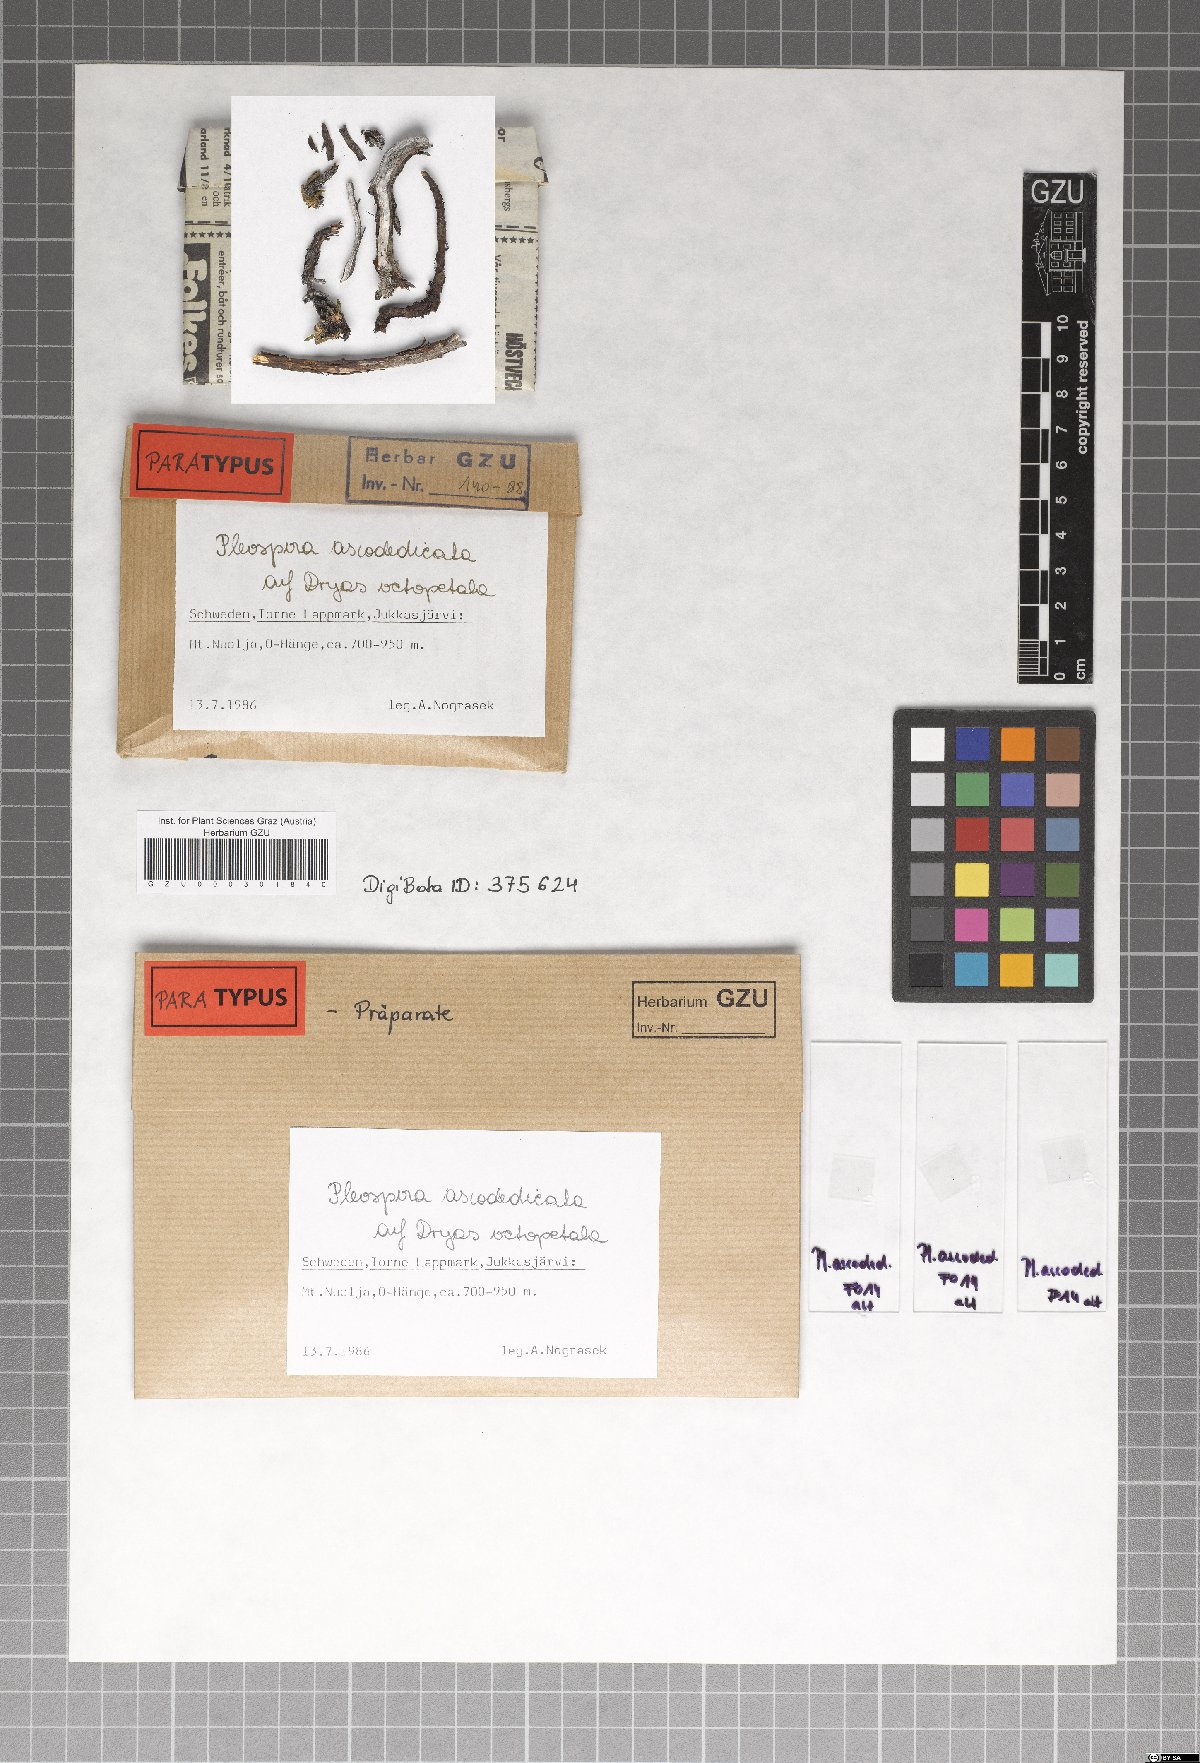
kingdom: Fungi
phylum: Ascomycota
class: Dothideomycetes
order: Pleosporales
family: Pleosporaceae
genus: Pleospora
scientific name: Pleospora ascodedicata
